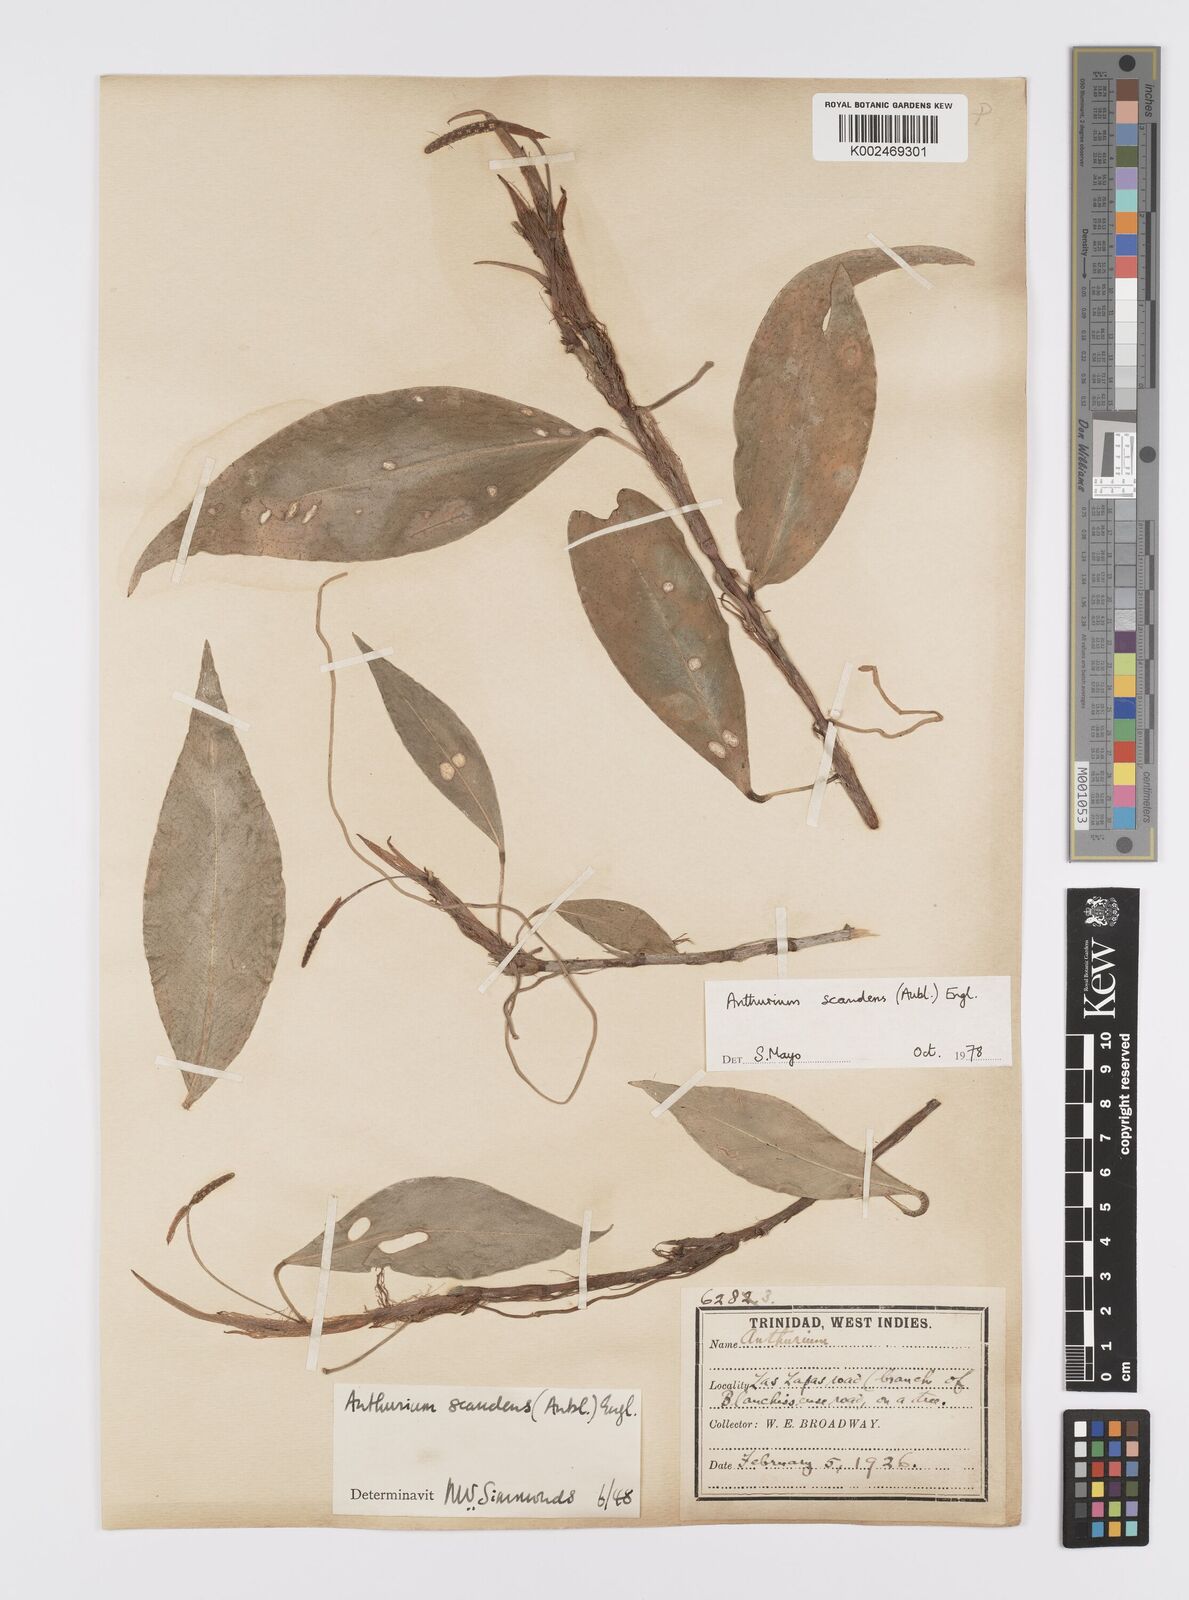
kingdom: Plantae
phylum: Tracheophyta
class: Liliopsida
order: Alismatales
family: Araceae
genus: Anthurium
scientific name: Anthurium scandens
